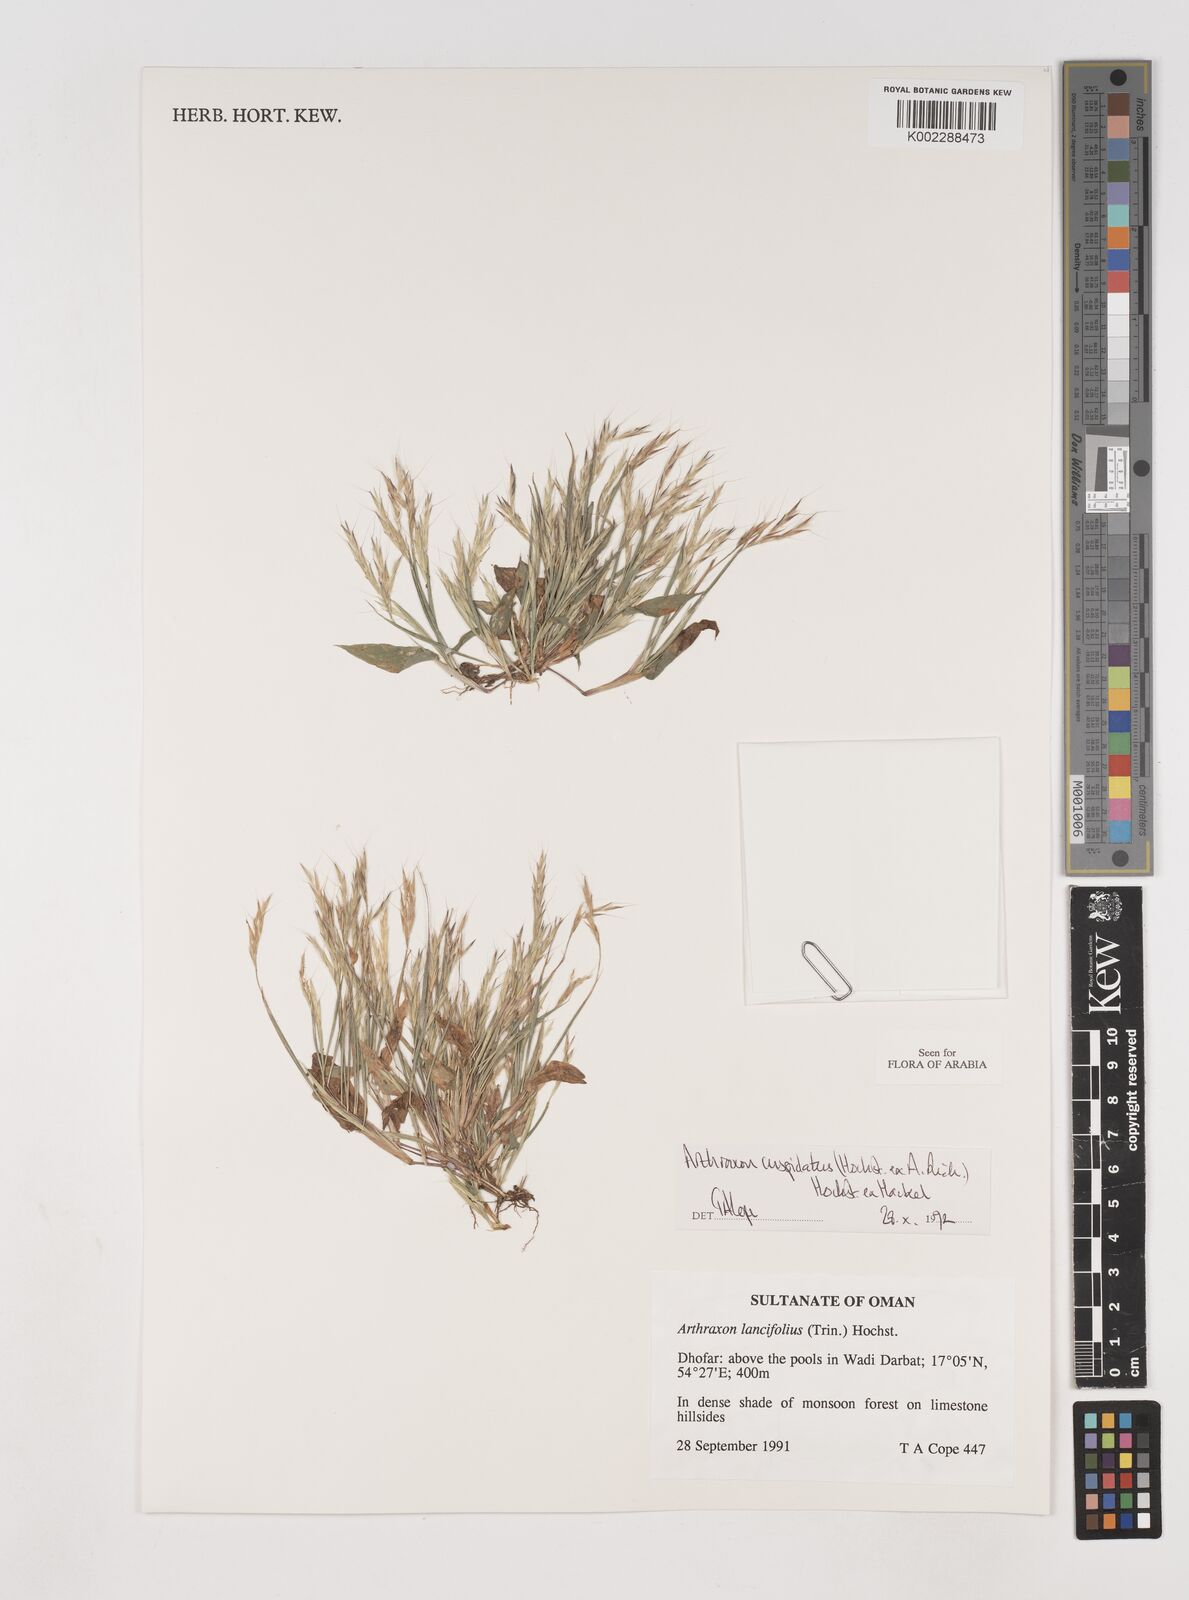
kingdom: Plantae
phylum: Tracheophyta
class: Liliopsida
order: Poales
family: Poaceae
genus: Arthraxon
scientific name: Arthraxon cuspidatus
